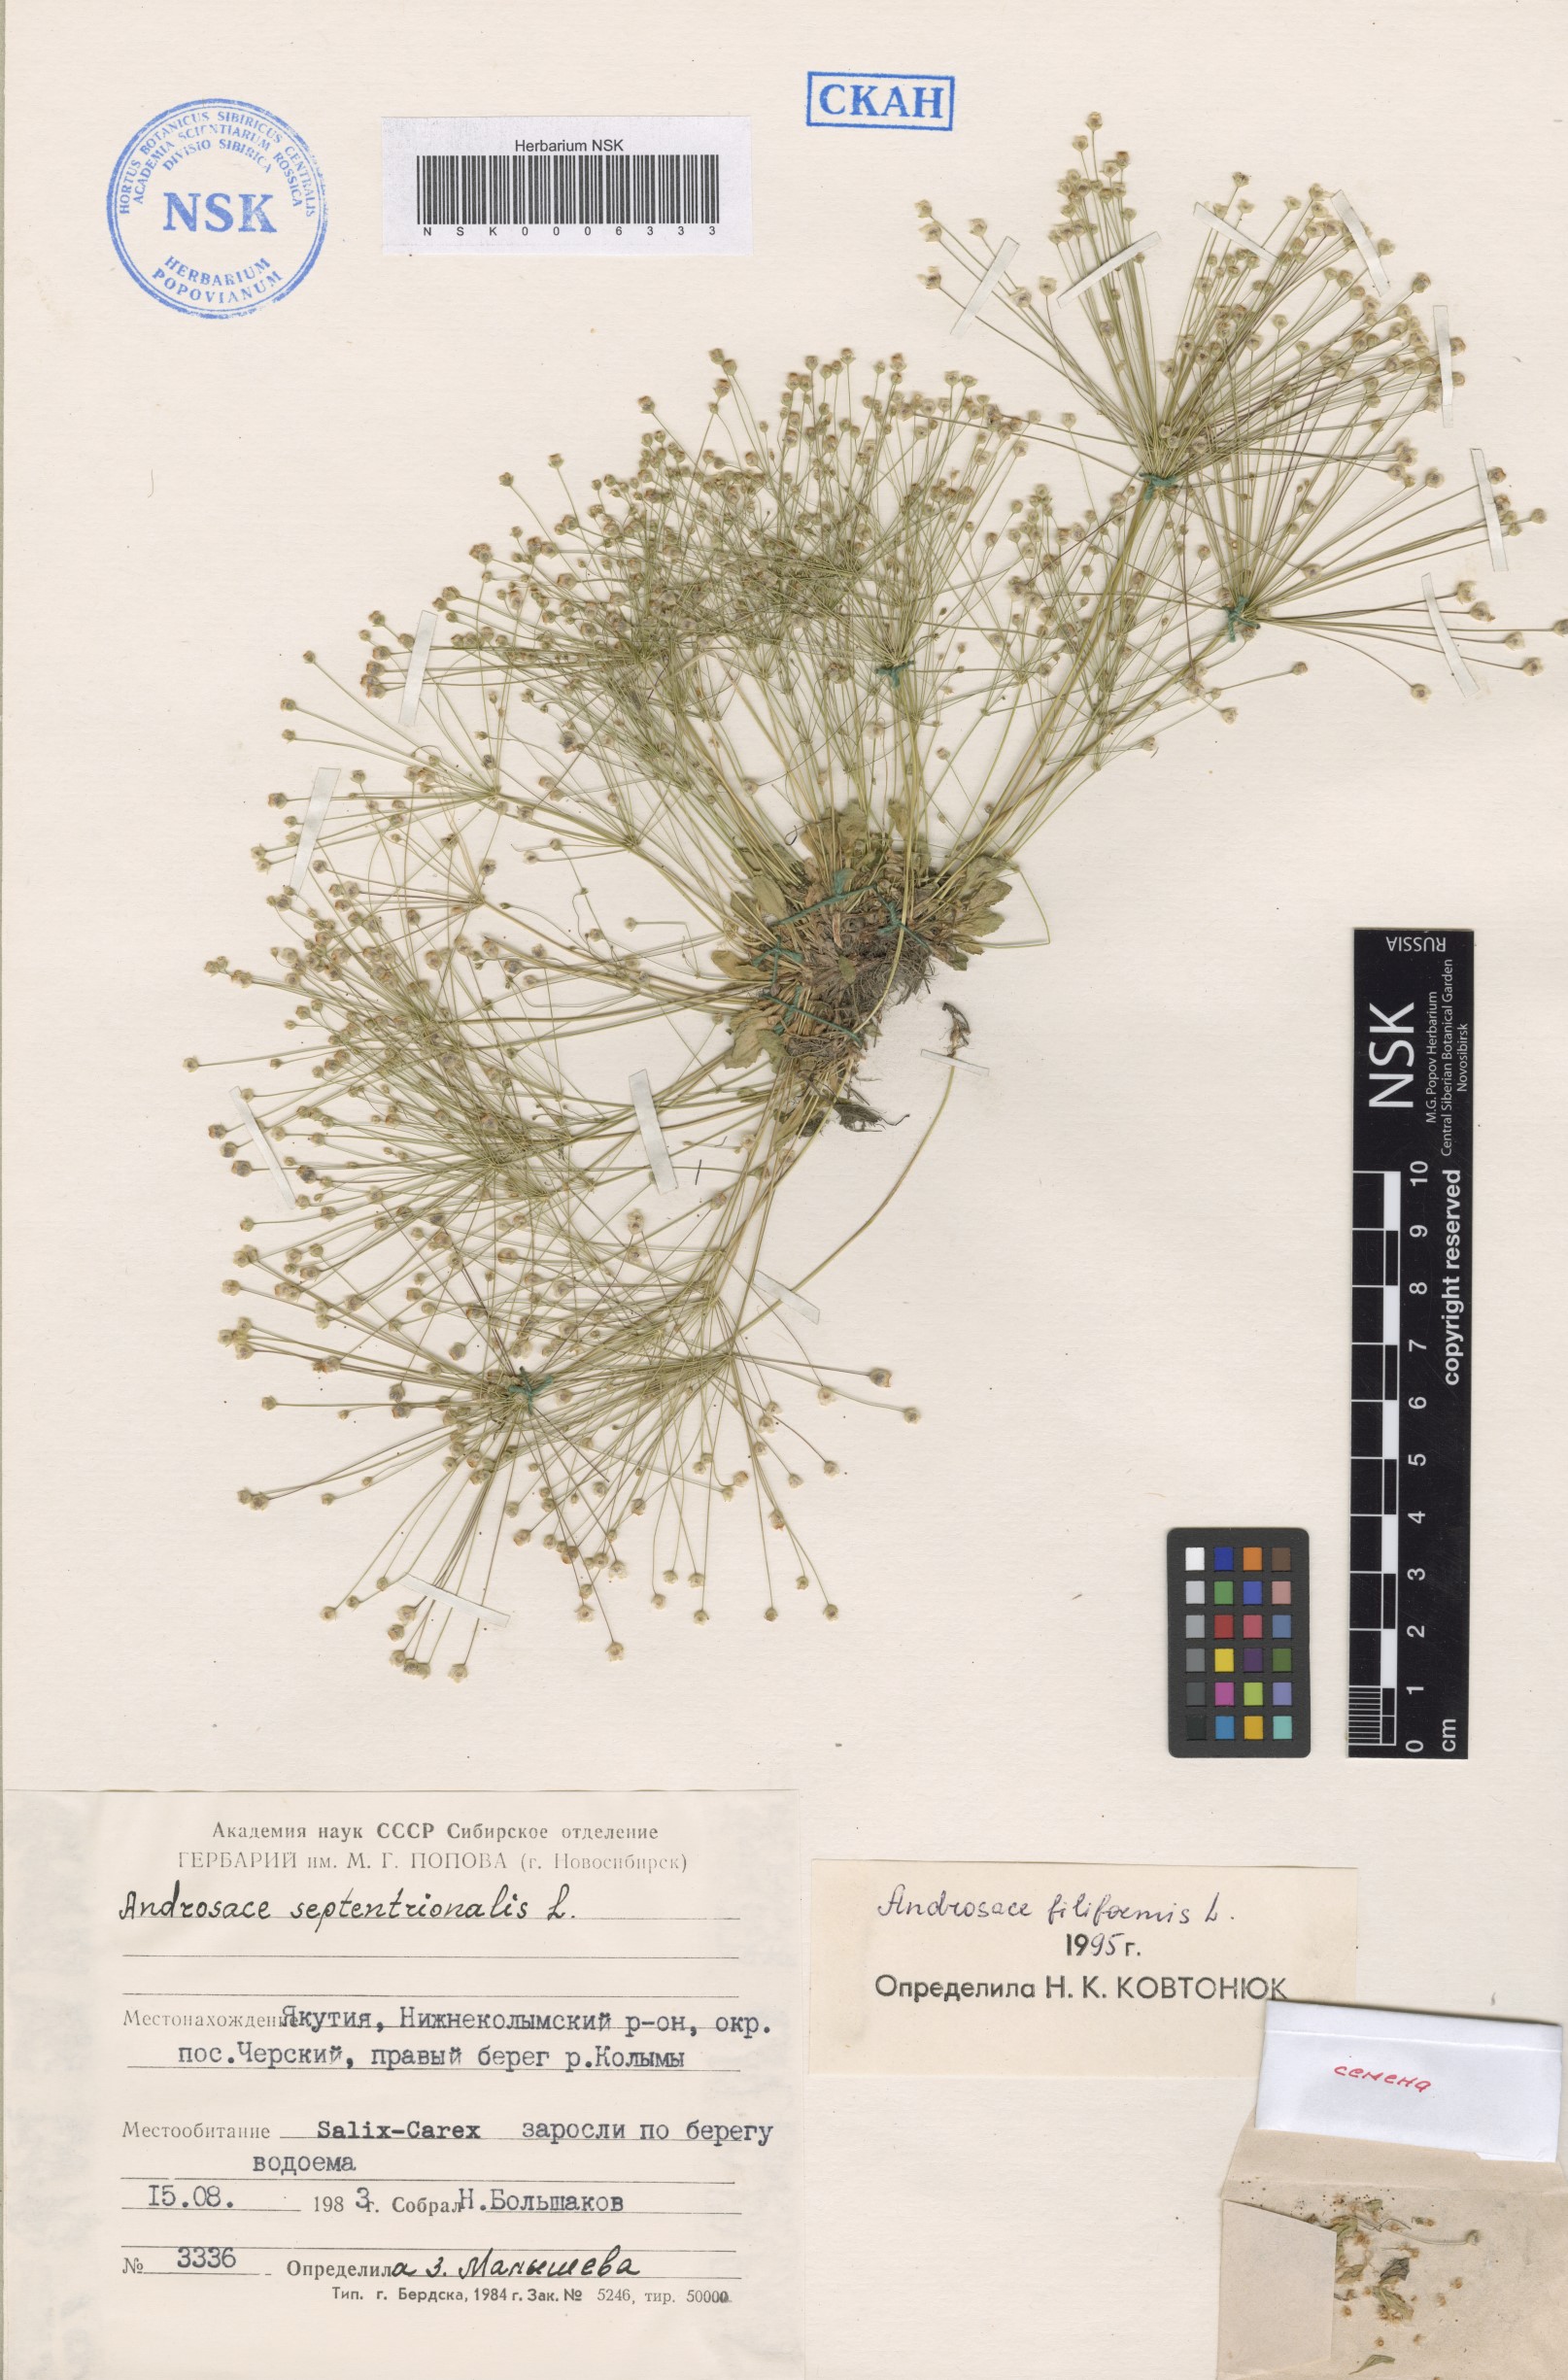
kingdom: Plantae
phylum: Tracheophyta
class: Magnoliopsida
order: Ericales
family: Primulaceae
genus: Androsace
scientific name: Androsace filiformis
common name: Filiform rock jasmine
